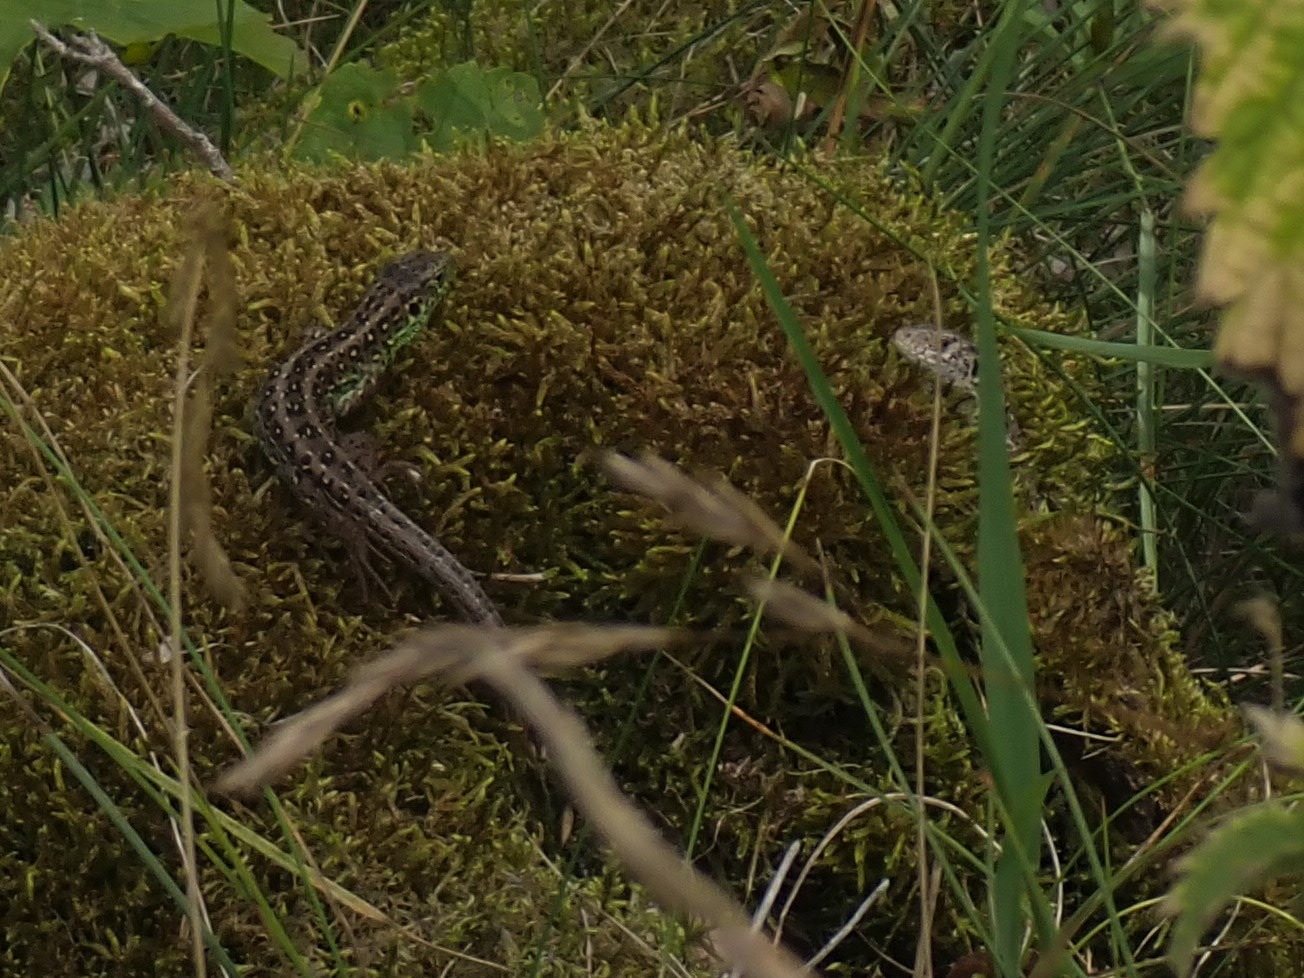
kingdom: Animalia
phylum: Chordata
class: Squamata
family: Lacertidae
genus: Lacerta
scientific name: Lacerta agilis
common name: Markfirben
